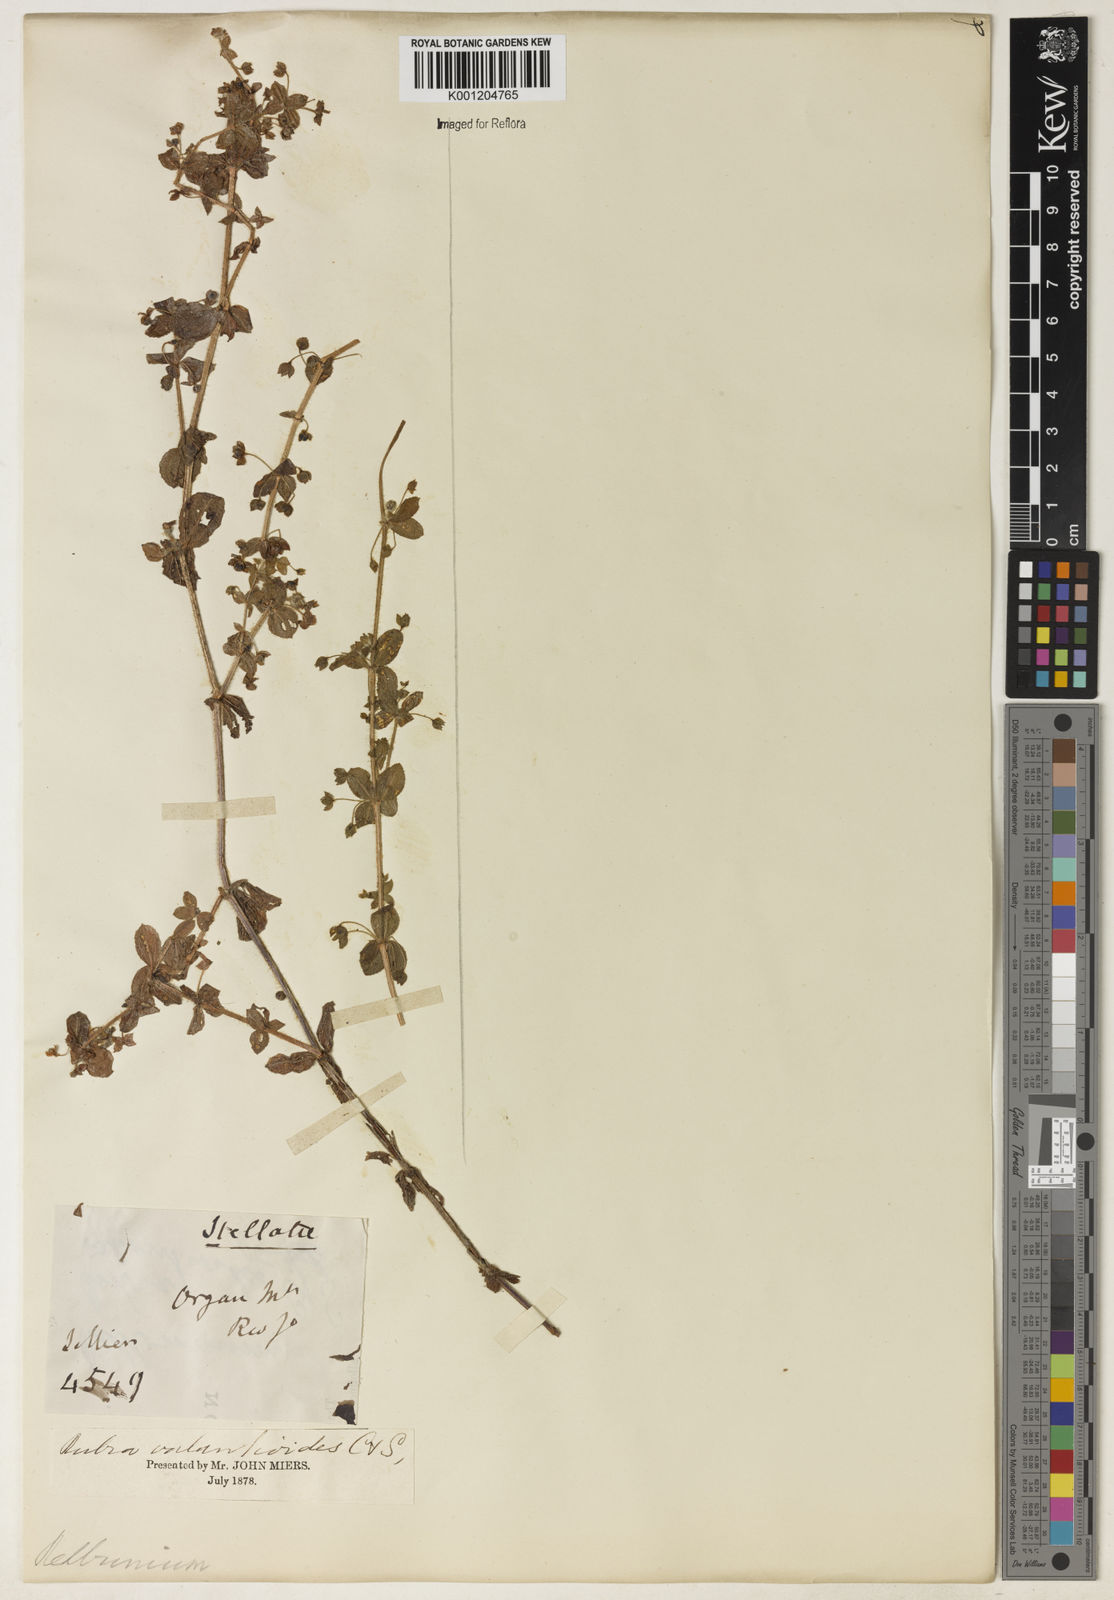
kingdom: Plantae
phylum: Tracheophyta
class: Magnoliopsida
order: Gentianales
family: Rubiaceae
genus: Galium
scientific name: Galium noxium
